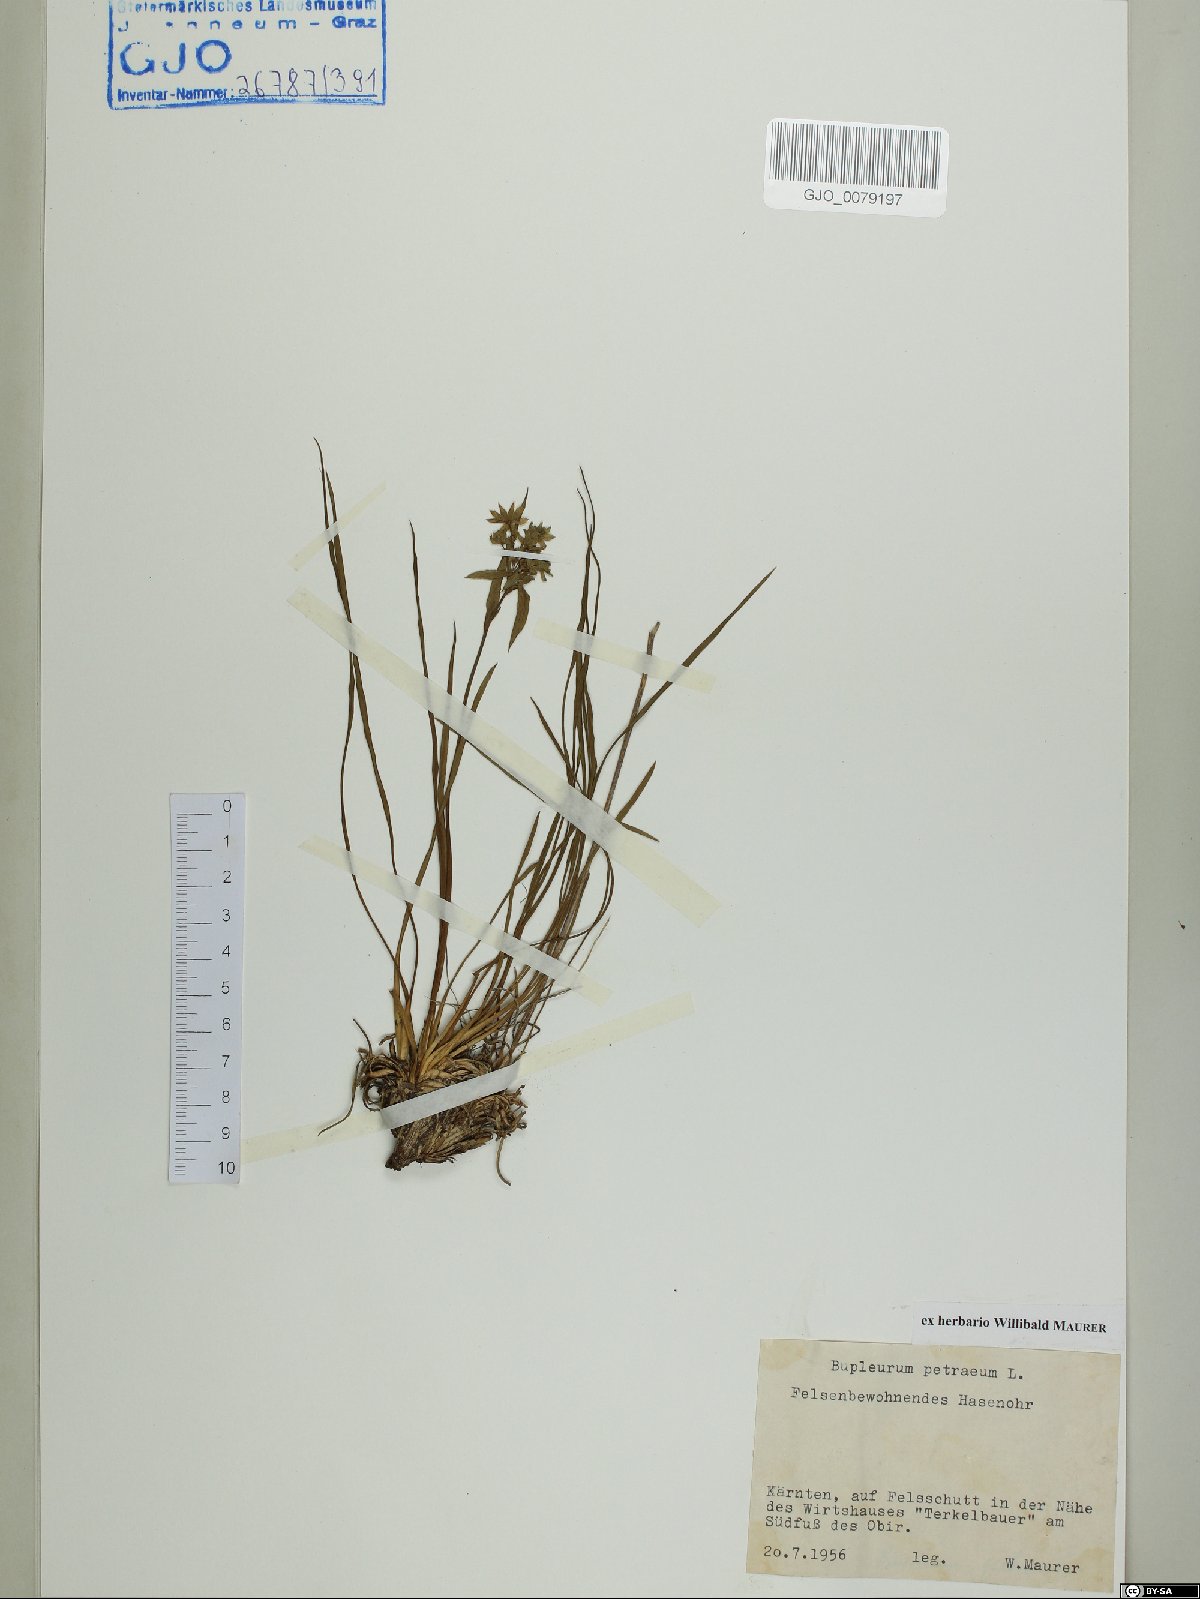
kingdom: Plantae
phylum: Tracheophyta
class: Magnoliopsida
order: Apiales
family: Apiaceae
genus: Bupleurum
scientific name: Bupleurum petraeum
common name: Rock hare's-ear
